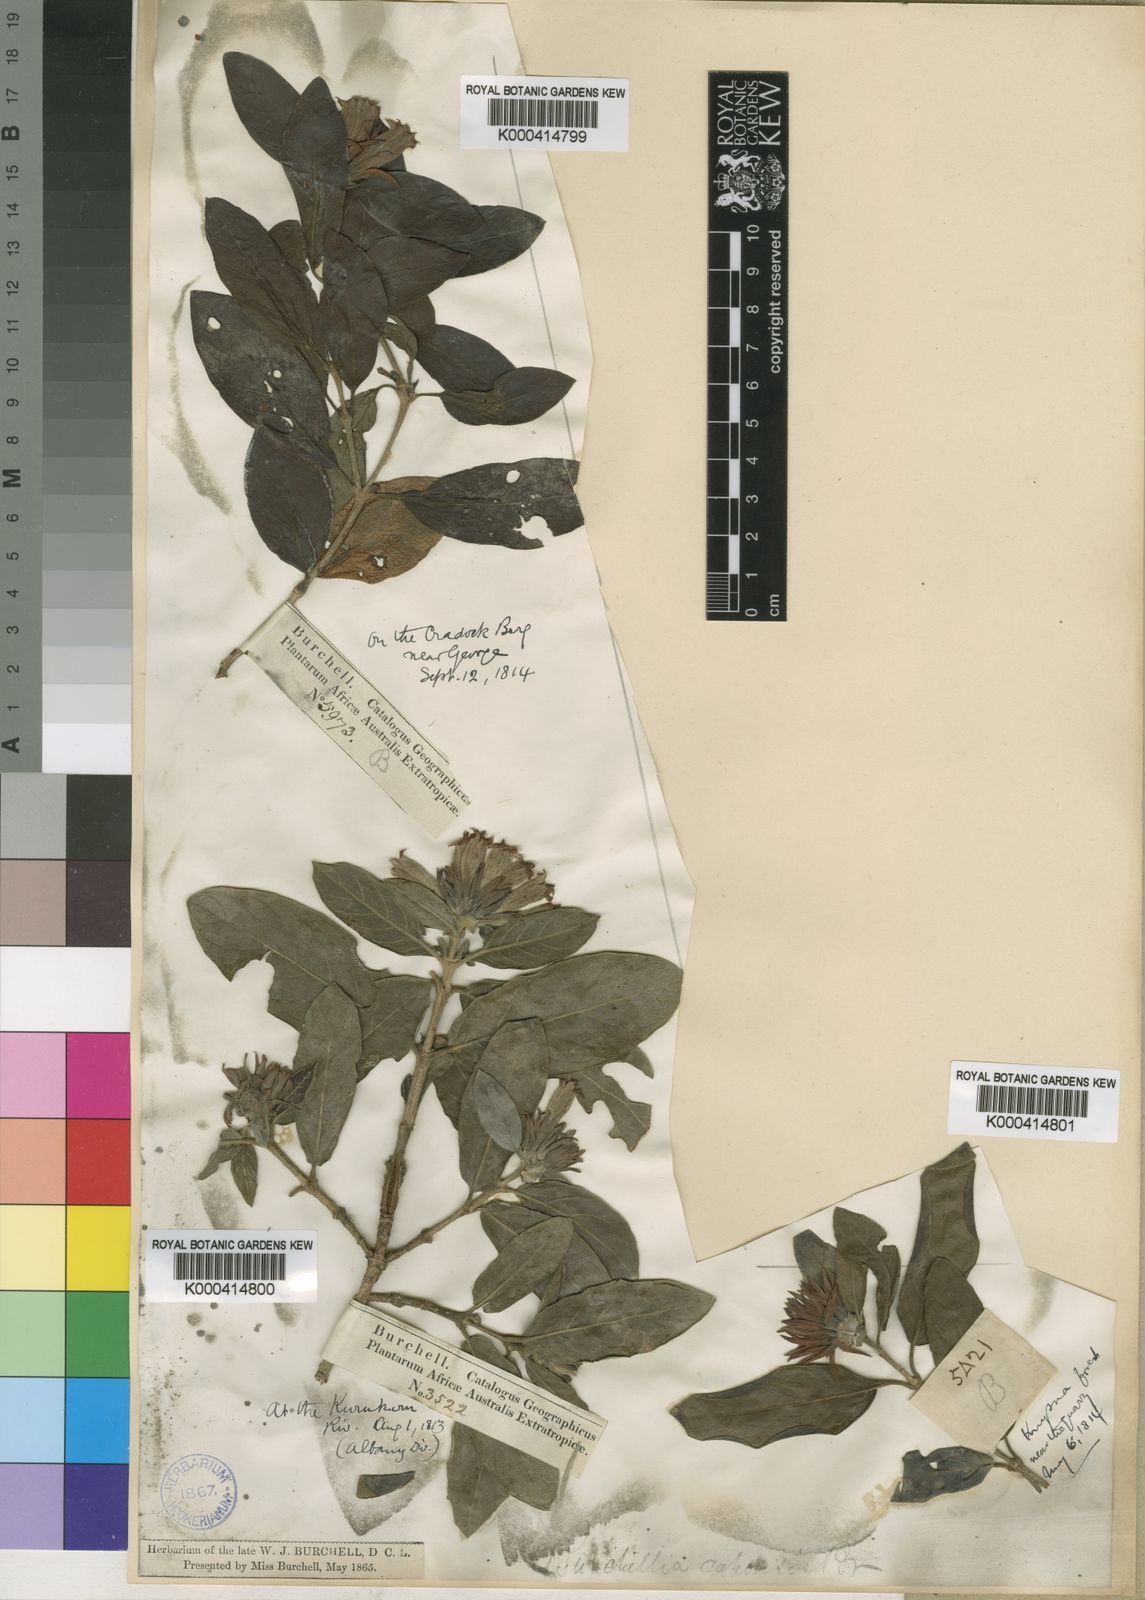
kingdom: Plantae
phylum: Tracheophyta
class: Magnoliopsida
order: Gentianales
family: Rubiaceae
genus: Burchellia
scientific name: Burchellia bubalina
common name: Wild pomegranate
